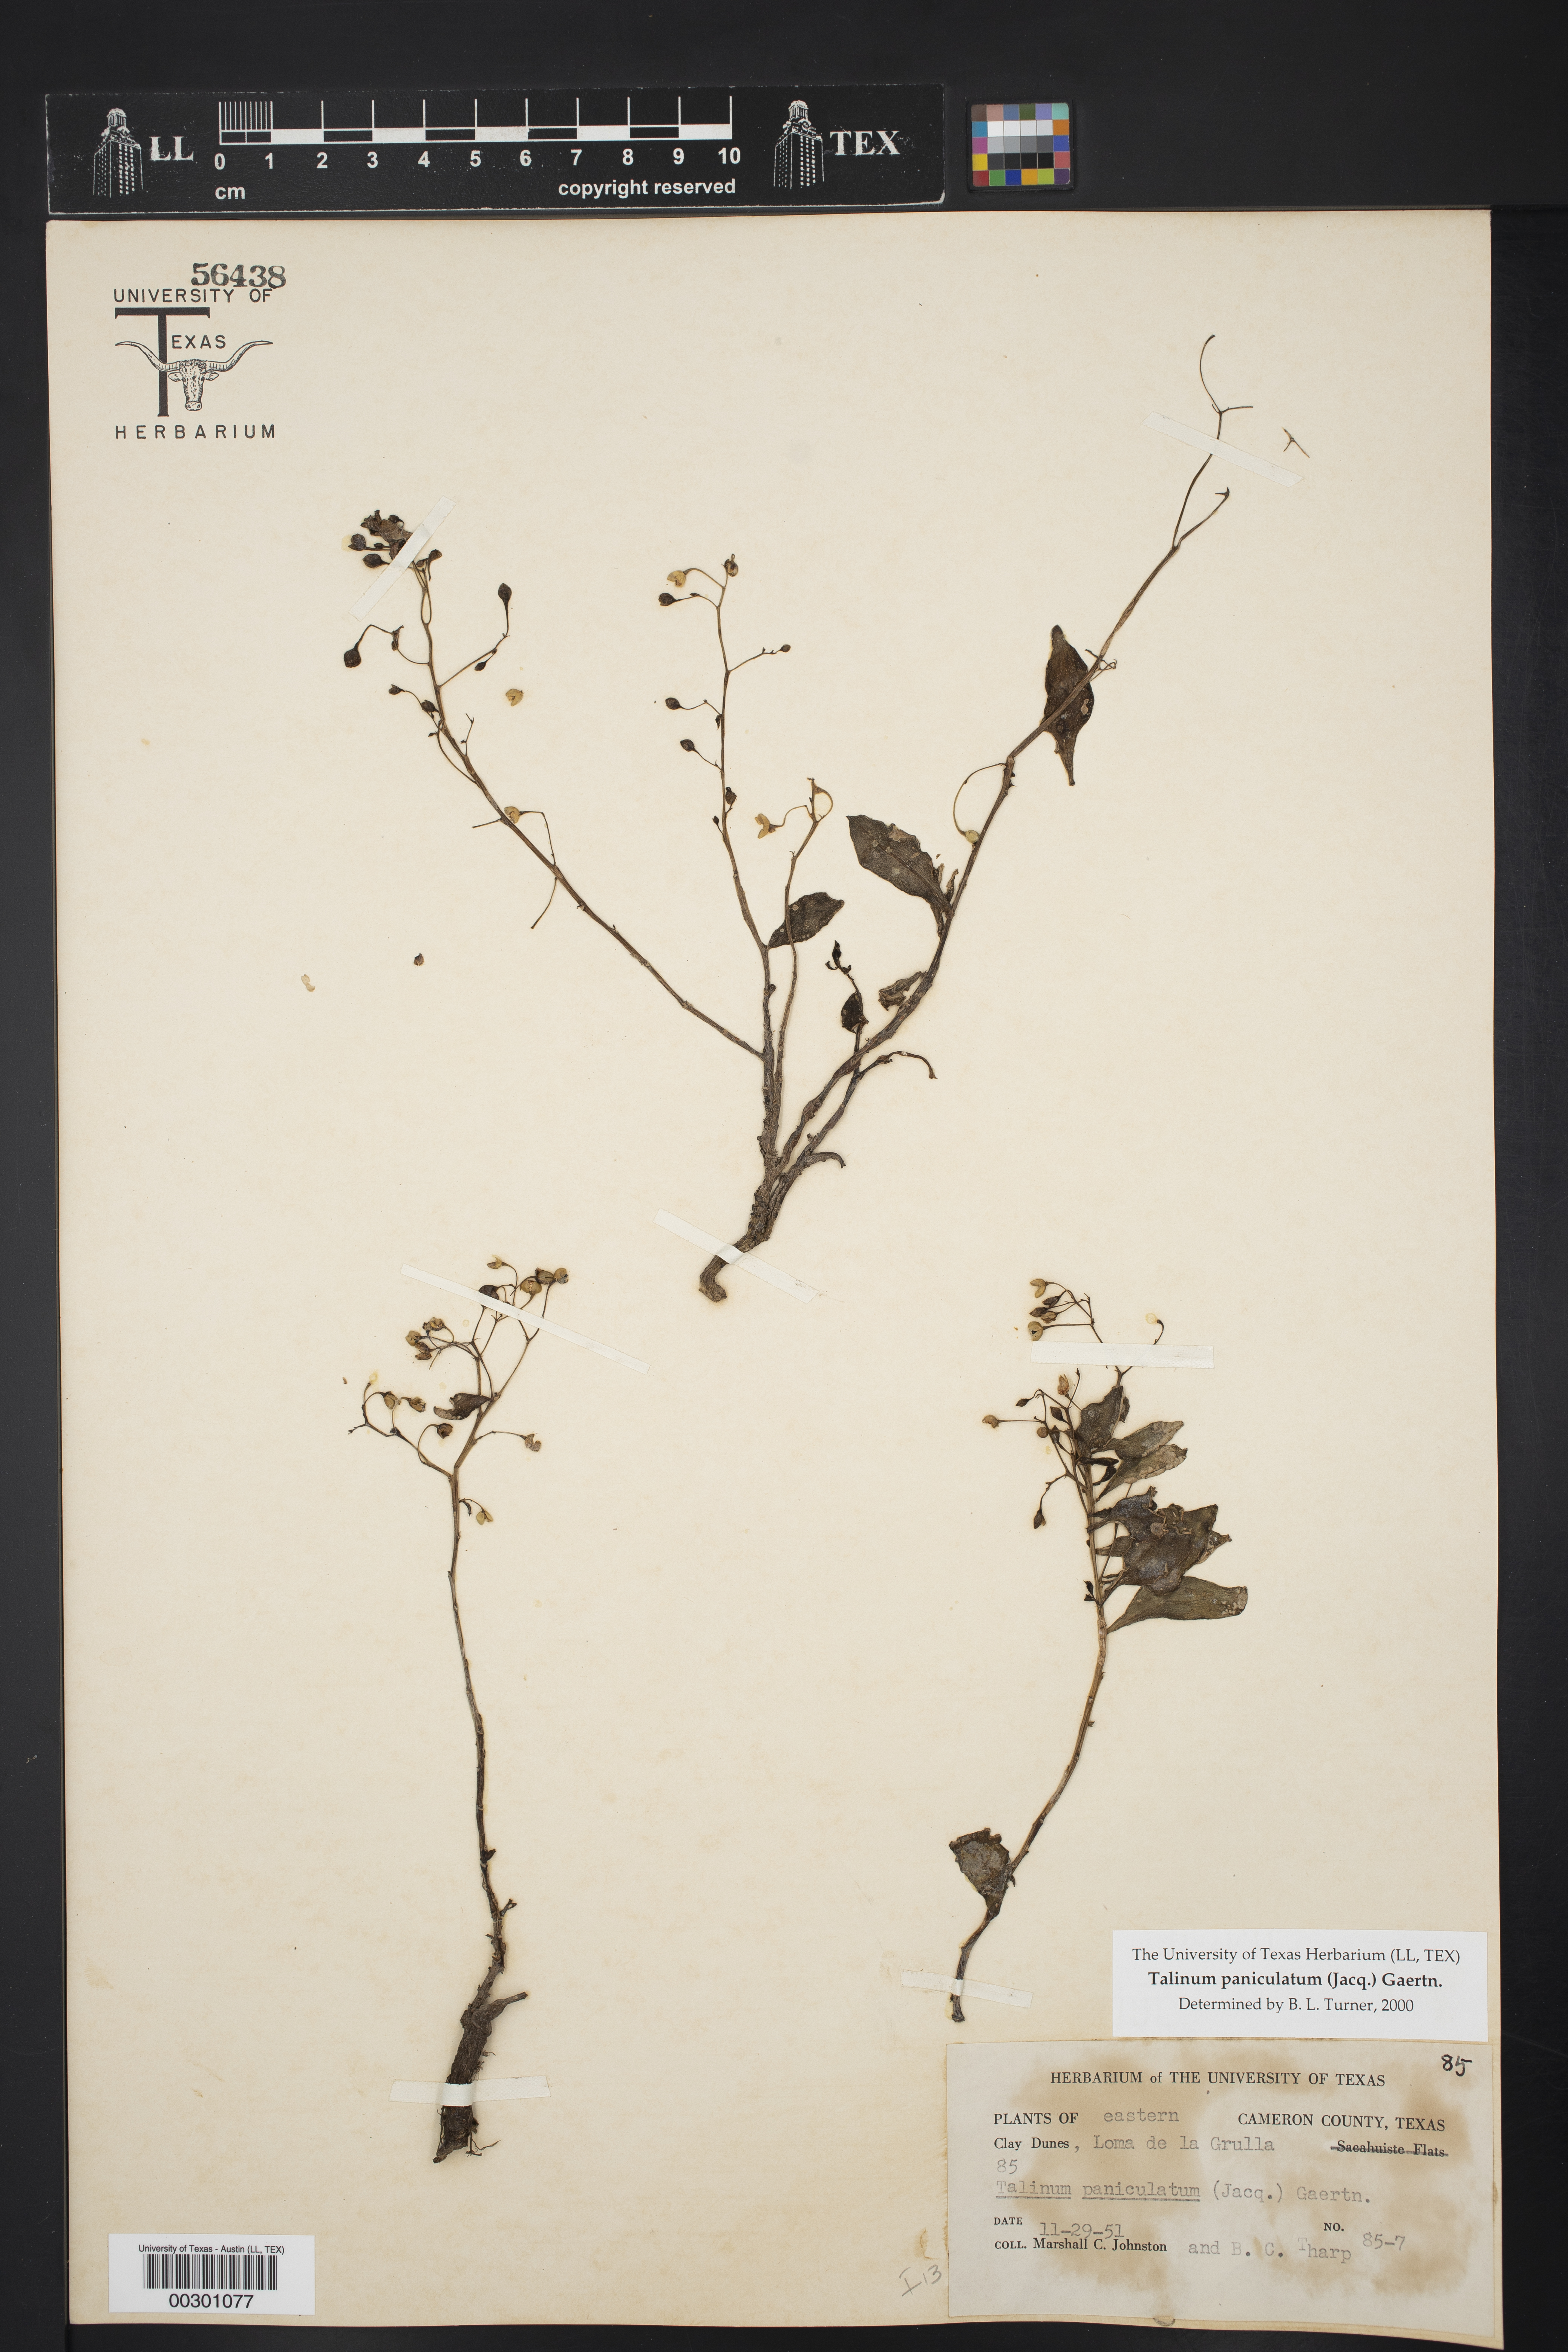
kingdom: Plantae
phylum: Tracheophyta
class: Magnoliopsida
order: Caryophyllales
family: Talinaceae
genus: Talinum
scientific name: Talinum paniculatum
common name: Jewels of opar
